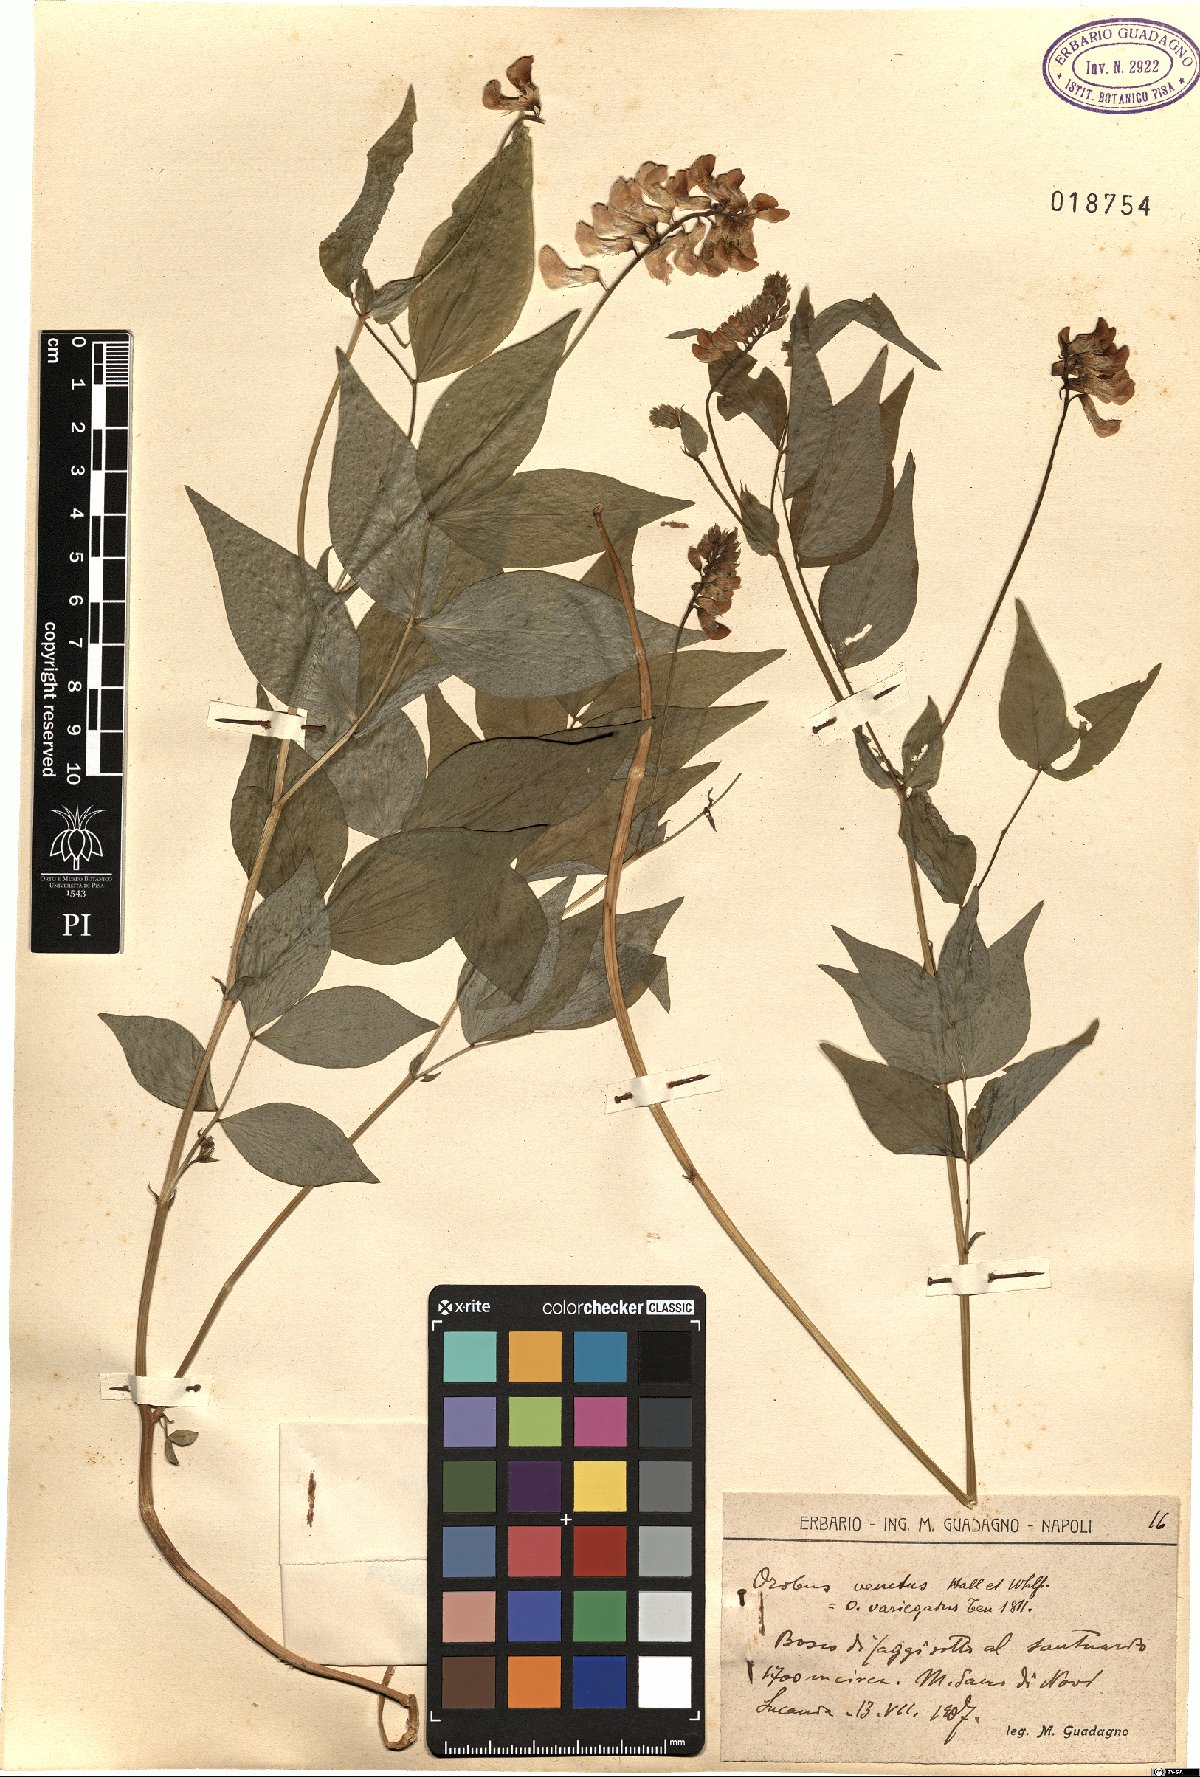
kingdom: Plantae
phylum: Tracheophyta
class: Magnoliopsida
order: Fabales
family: Fabaceae
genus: Lathyrus
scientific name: Lathyrus venetus
